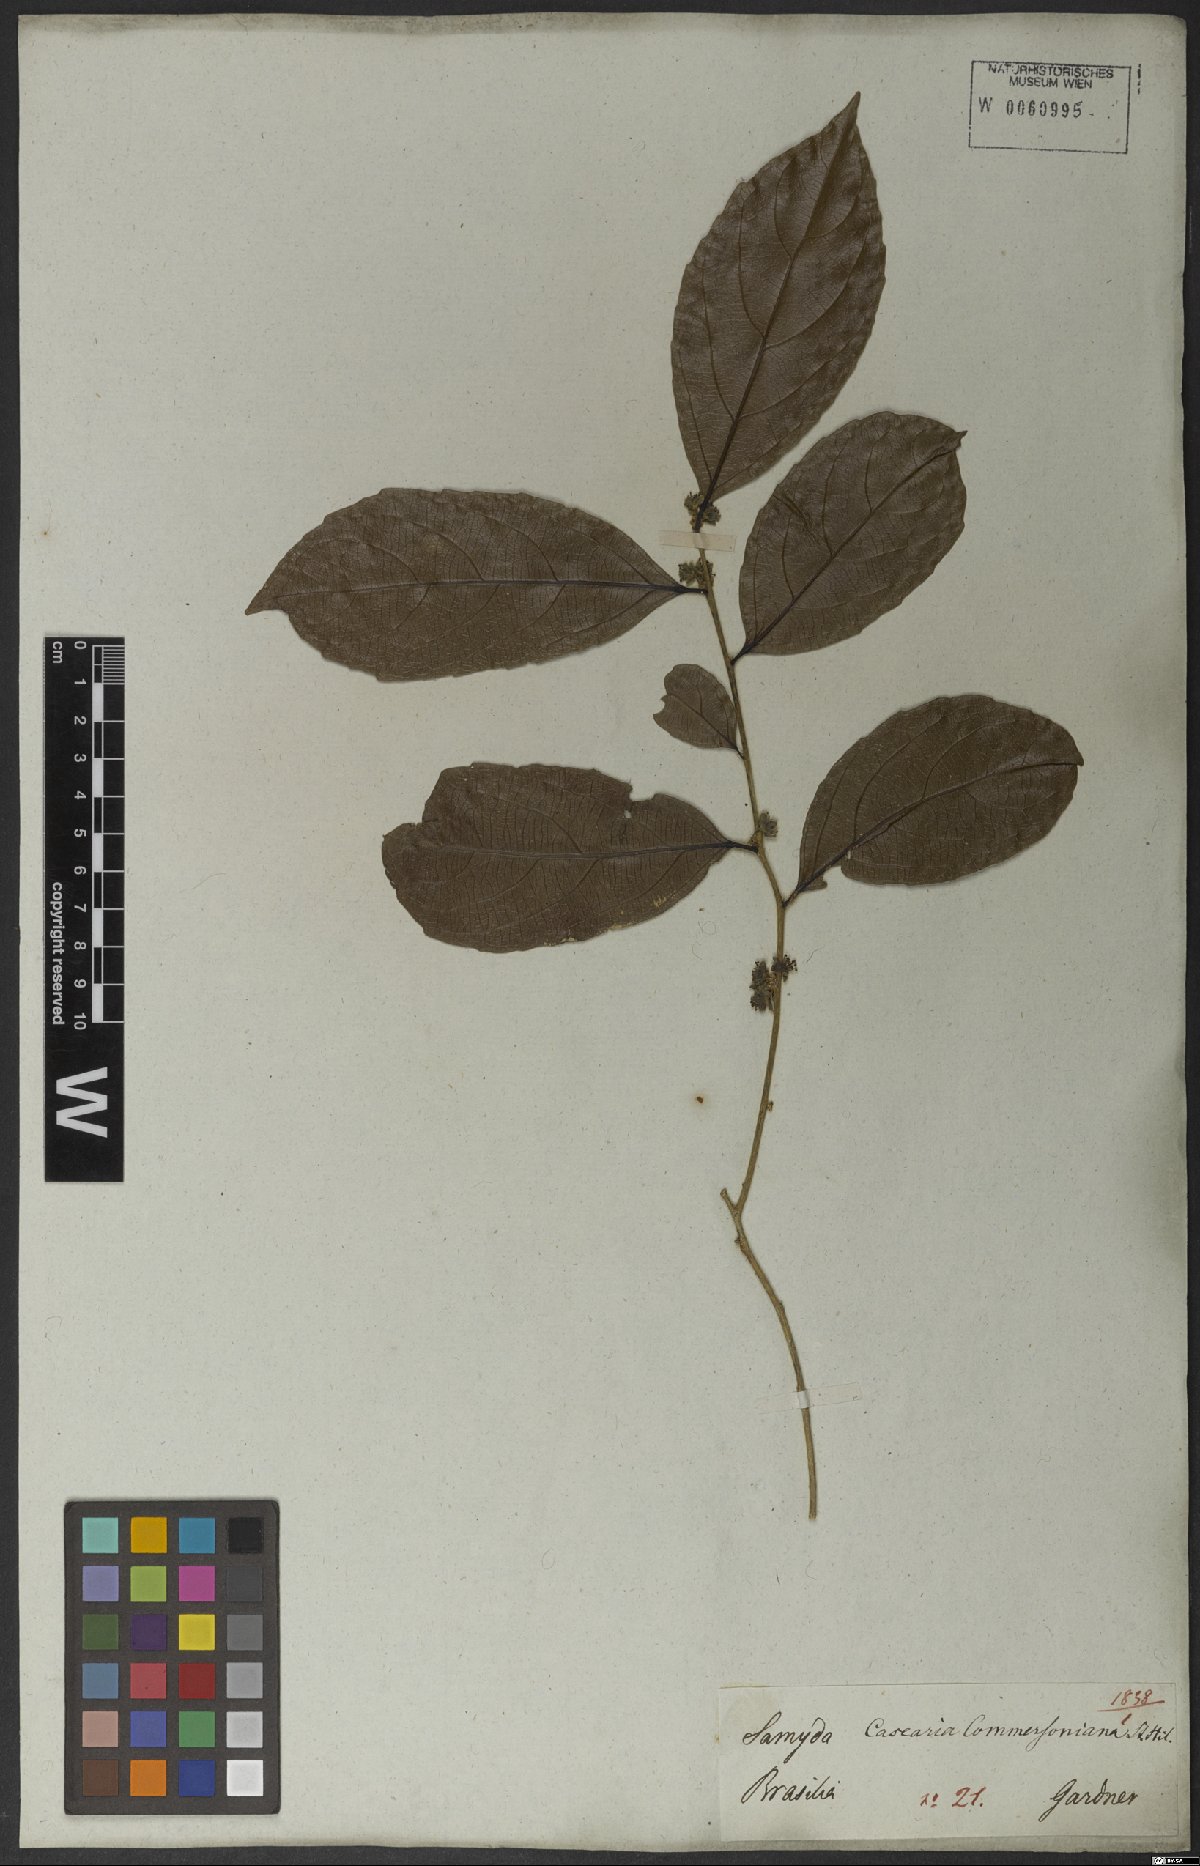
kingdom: Plantae
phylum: Tracheophyta
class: Magnoliopsida
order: Malpighiales
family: Salicaceae
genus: Piparea
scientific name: Piparea dentata
